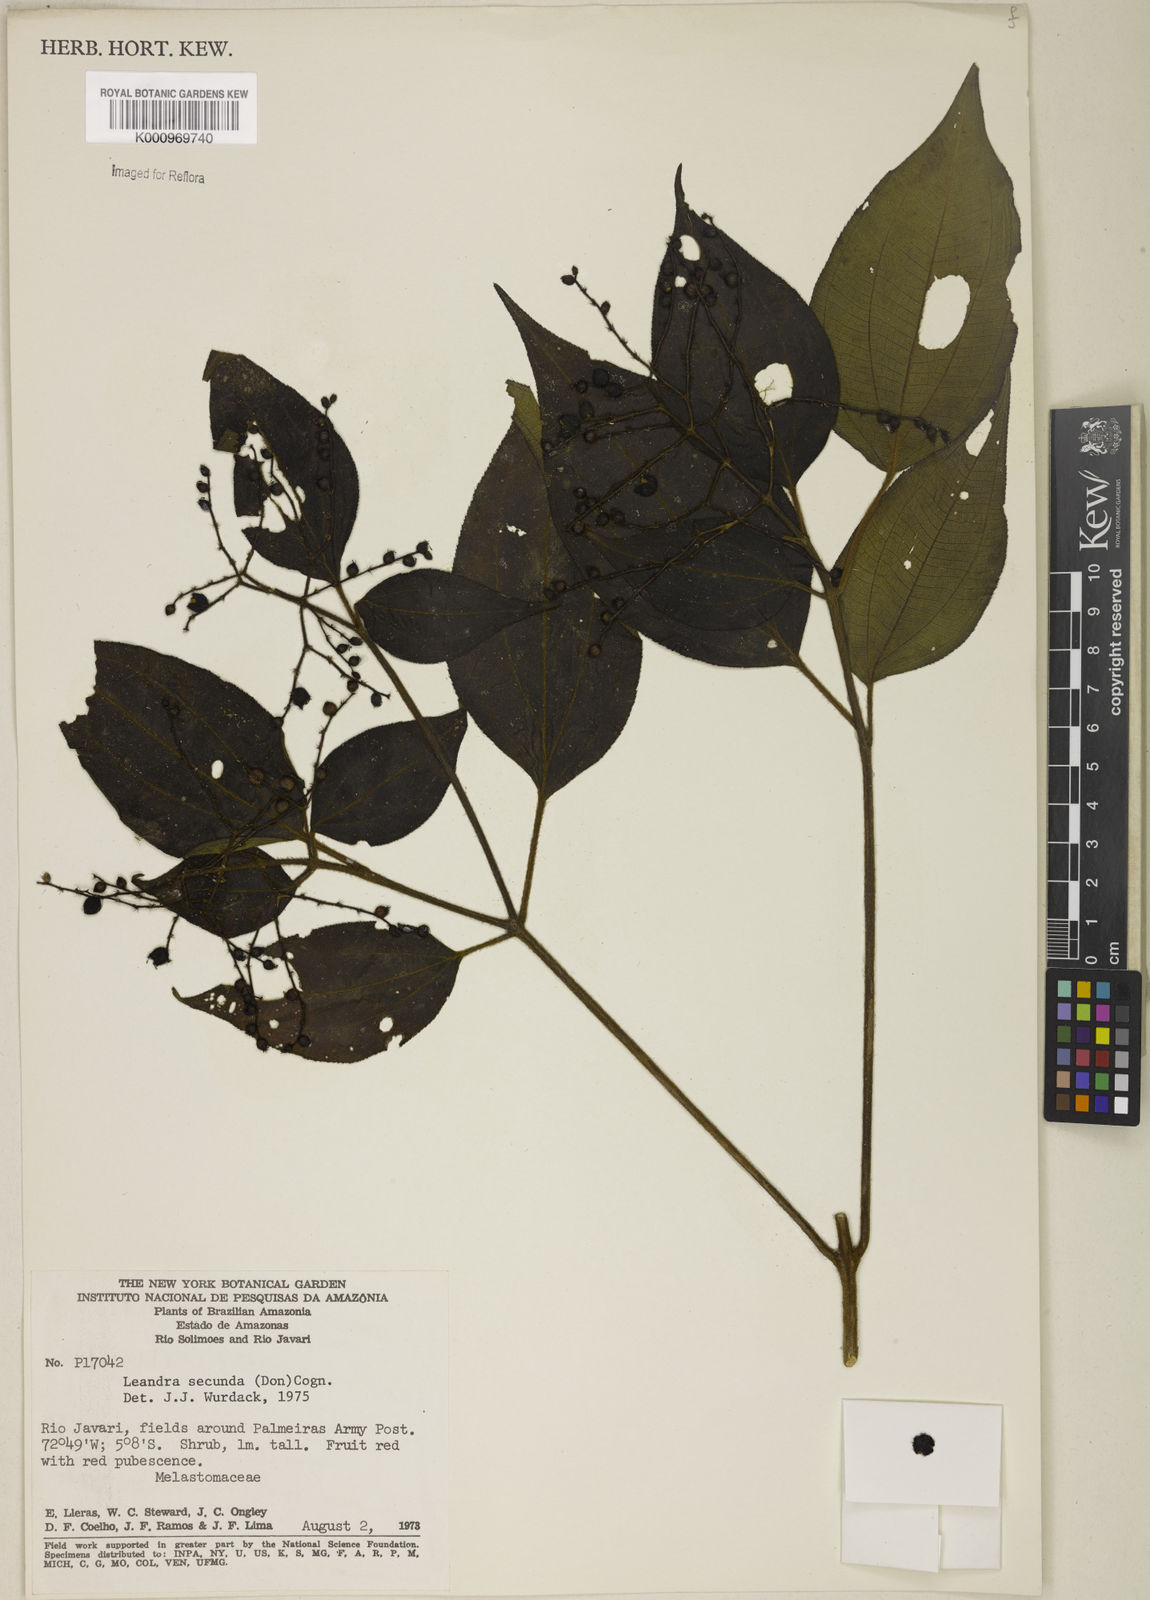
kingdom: Plantae
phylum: Tracheophyta
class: Magnoliopsida
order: Myrtales
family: Melastomataceae
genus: Miconia
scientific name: Miconia neosecunda
